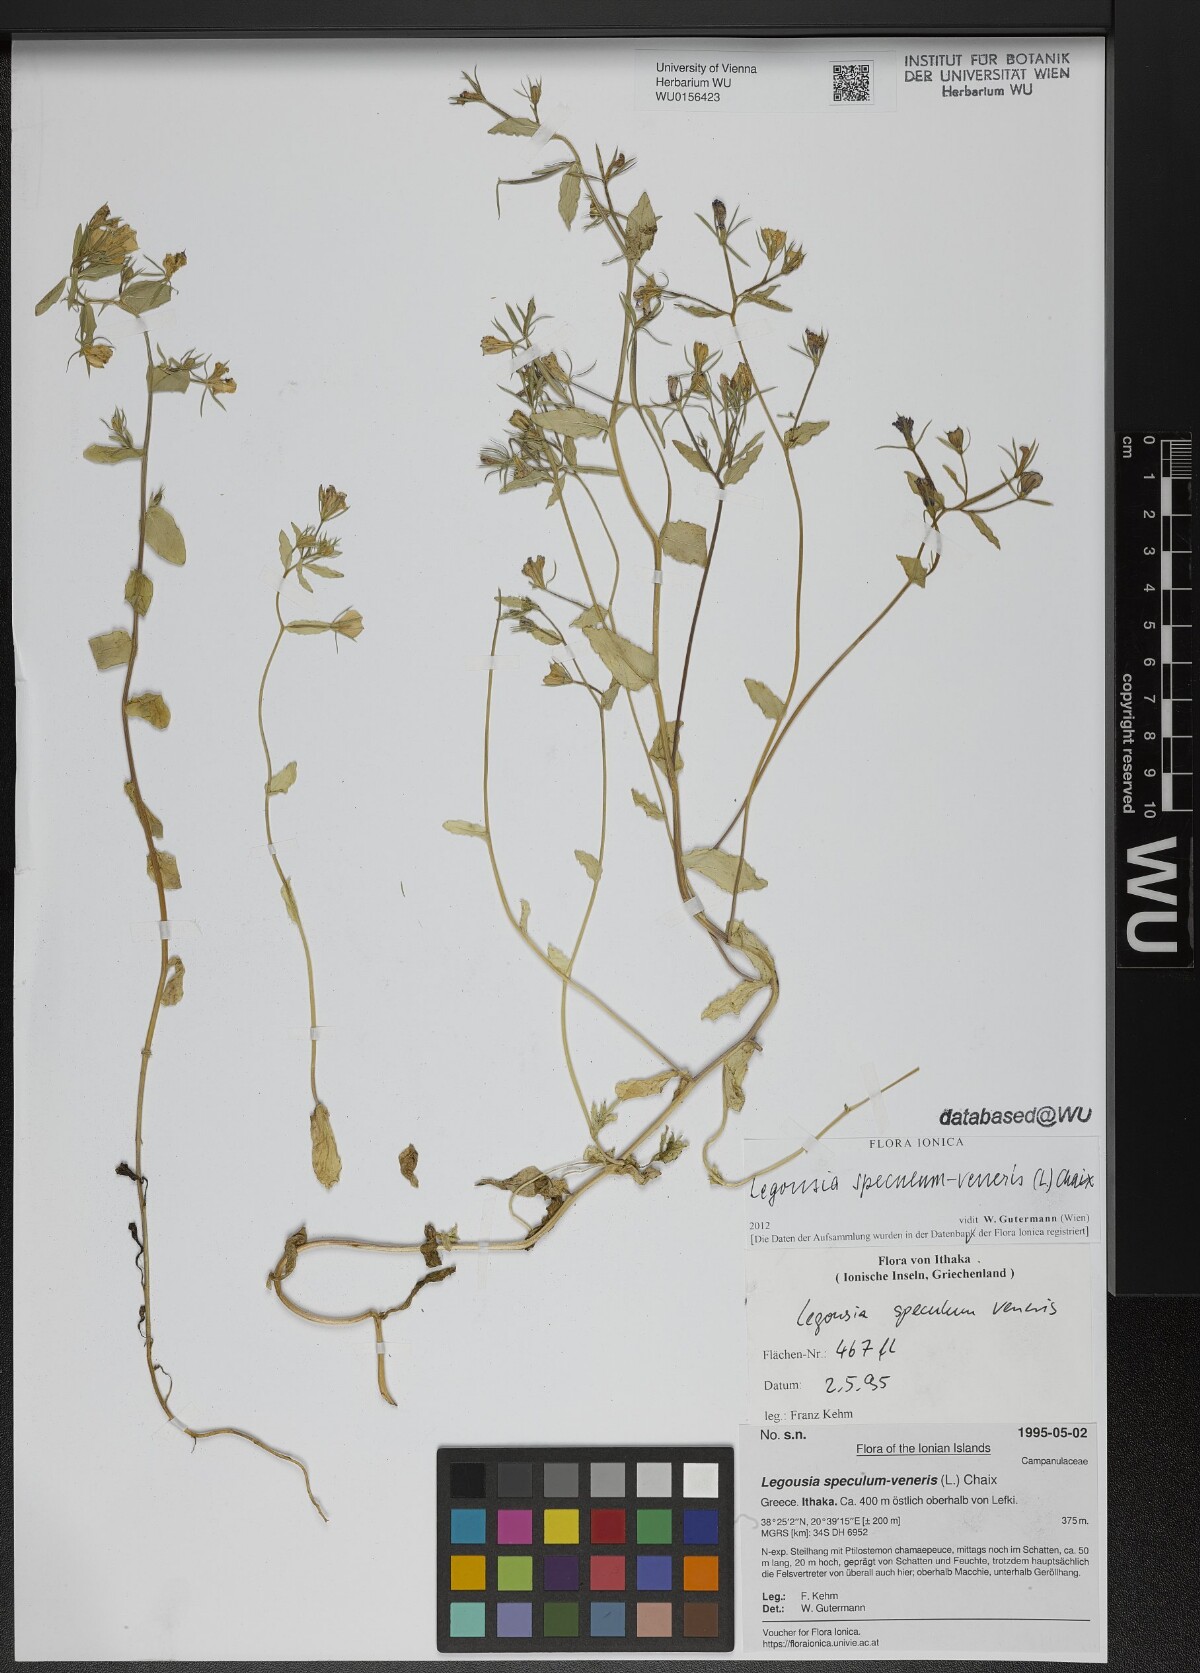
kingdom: Plantae
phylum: Tracheophyta
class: Magnoliopsida
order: Asterales
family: Campanulaceae
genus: Legousia
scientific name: Legousia speculum-veneris
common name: Large venus's-looking-glass
